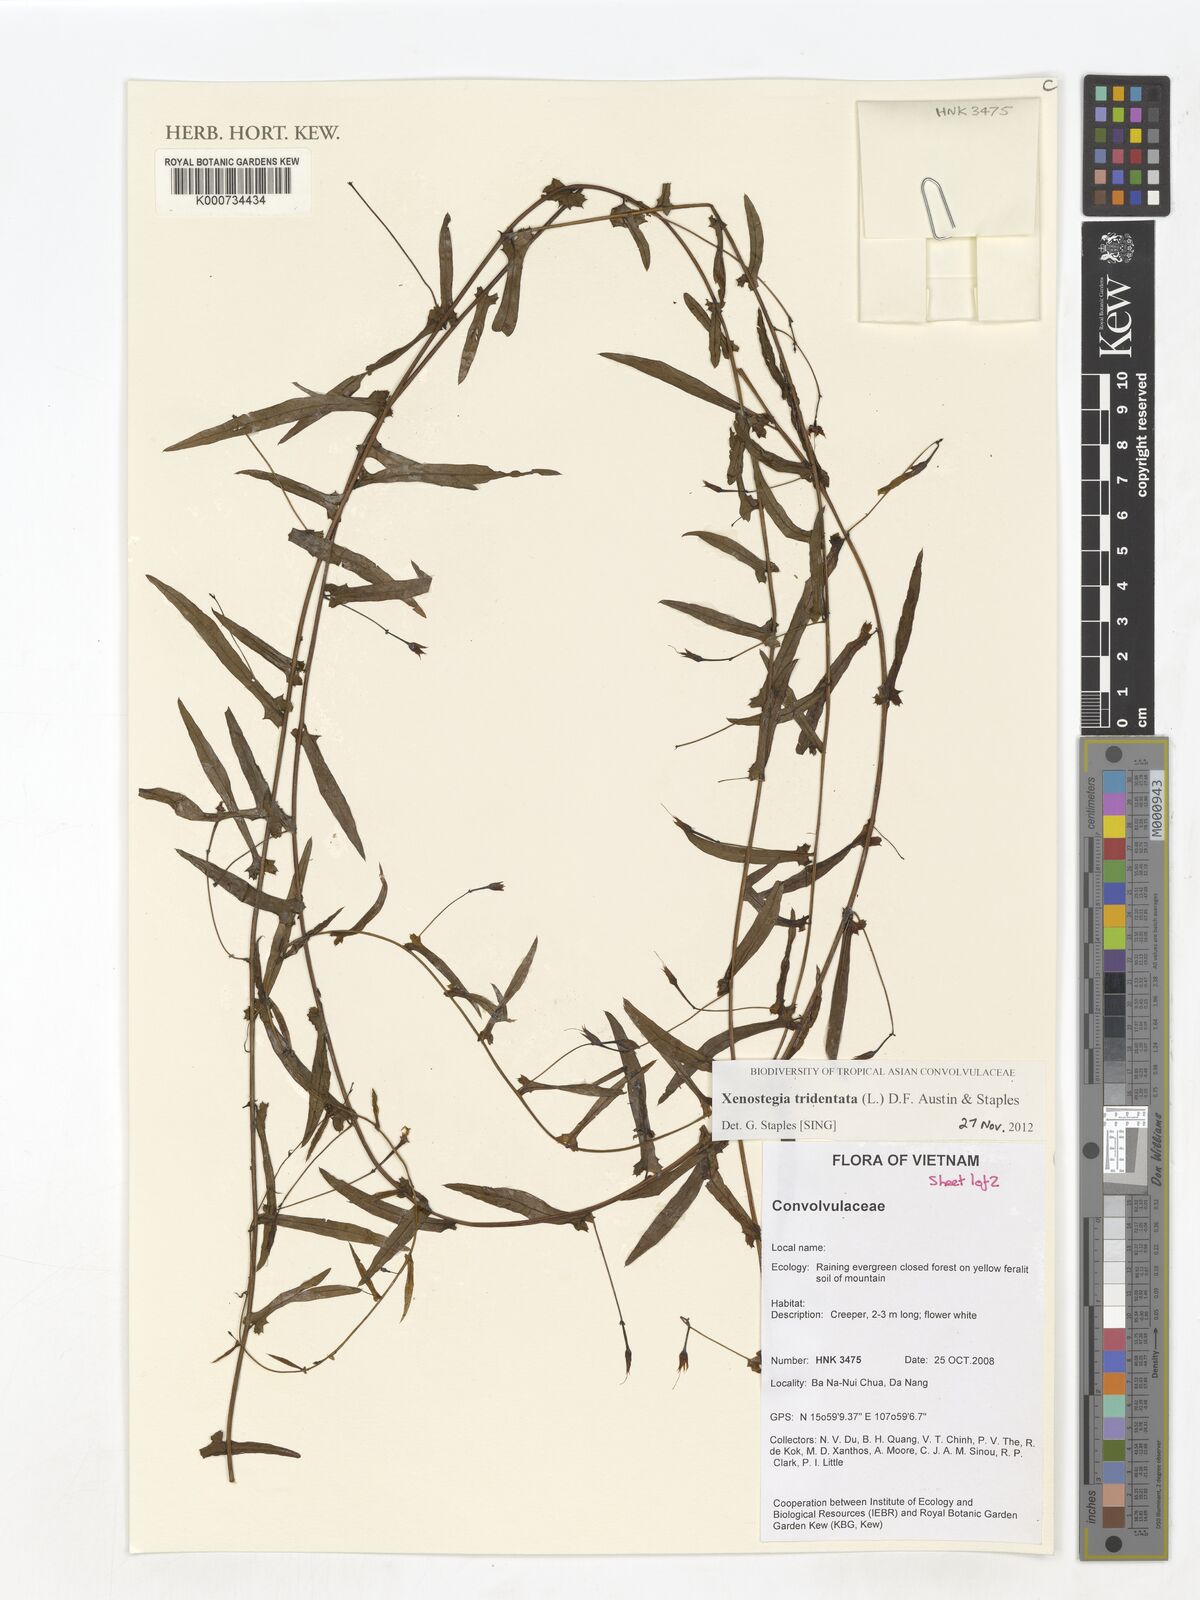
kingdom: Plantae
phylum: Tracheophyta
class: Magnoliopsida
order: Solanales
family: Convolvulaceae
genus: Xenostegia
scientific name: Xenostegia tridentata
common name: African morningvine
